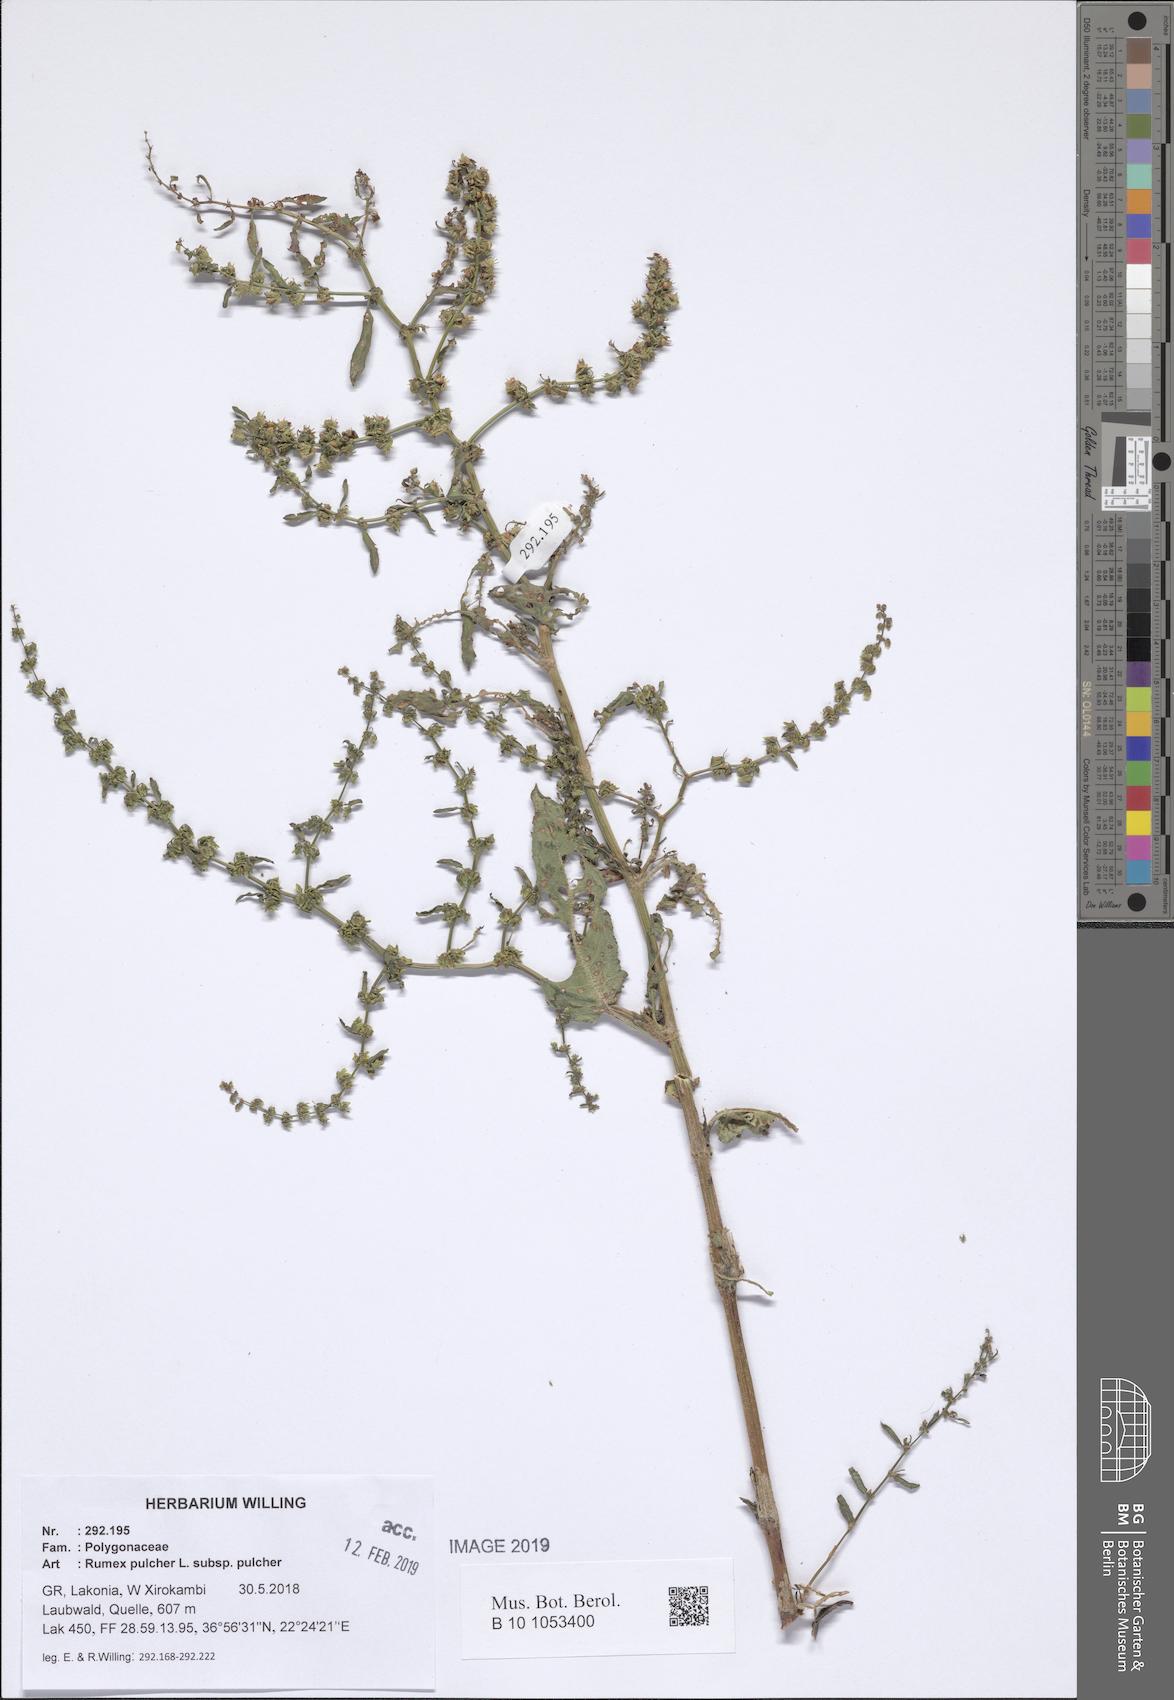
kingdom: Plantae
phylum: Tracheophyta
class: Magnoliopsida
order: Caryophyllales
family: Polygonaceae
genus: Rumex
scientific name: Rumex pulcher
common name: Fiddle dock
